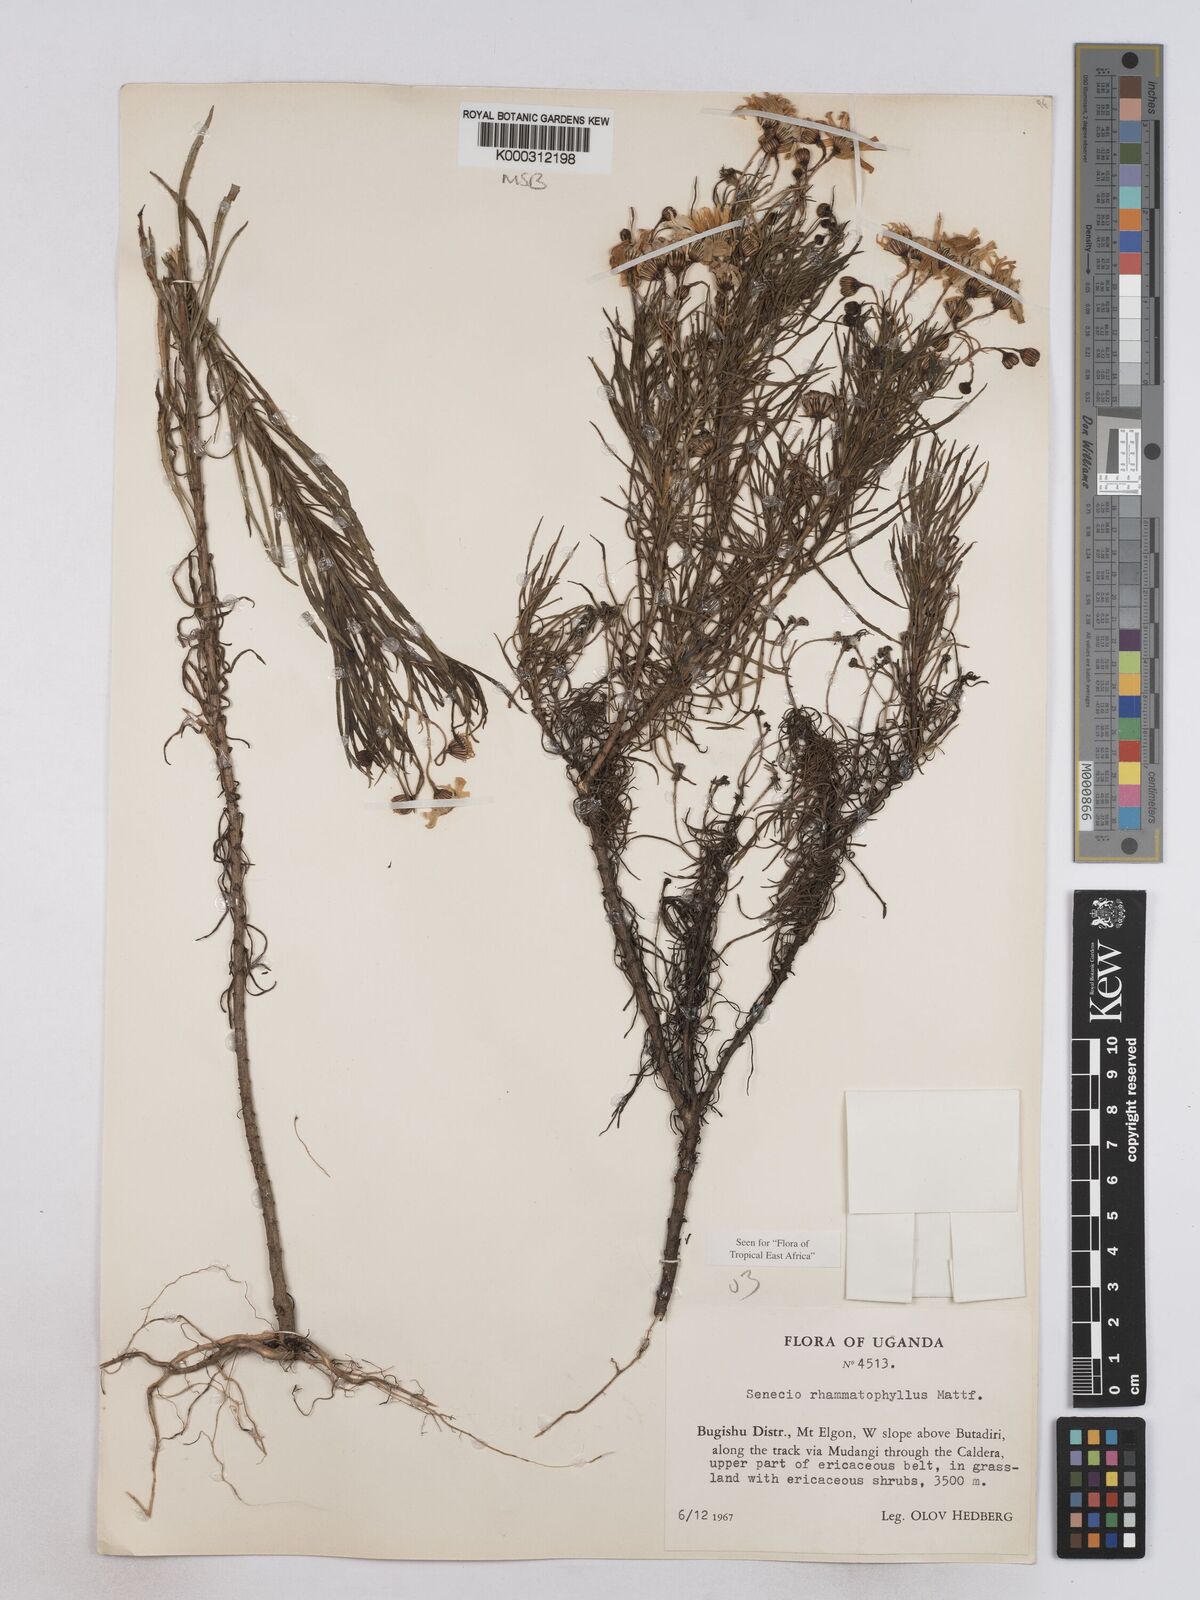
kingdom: Plantae
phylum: Tracheophyta
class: Magnoliopsida
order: Asterales
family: Asteraceae
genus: Senecio
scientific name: Senecio rhammatophyllus
